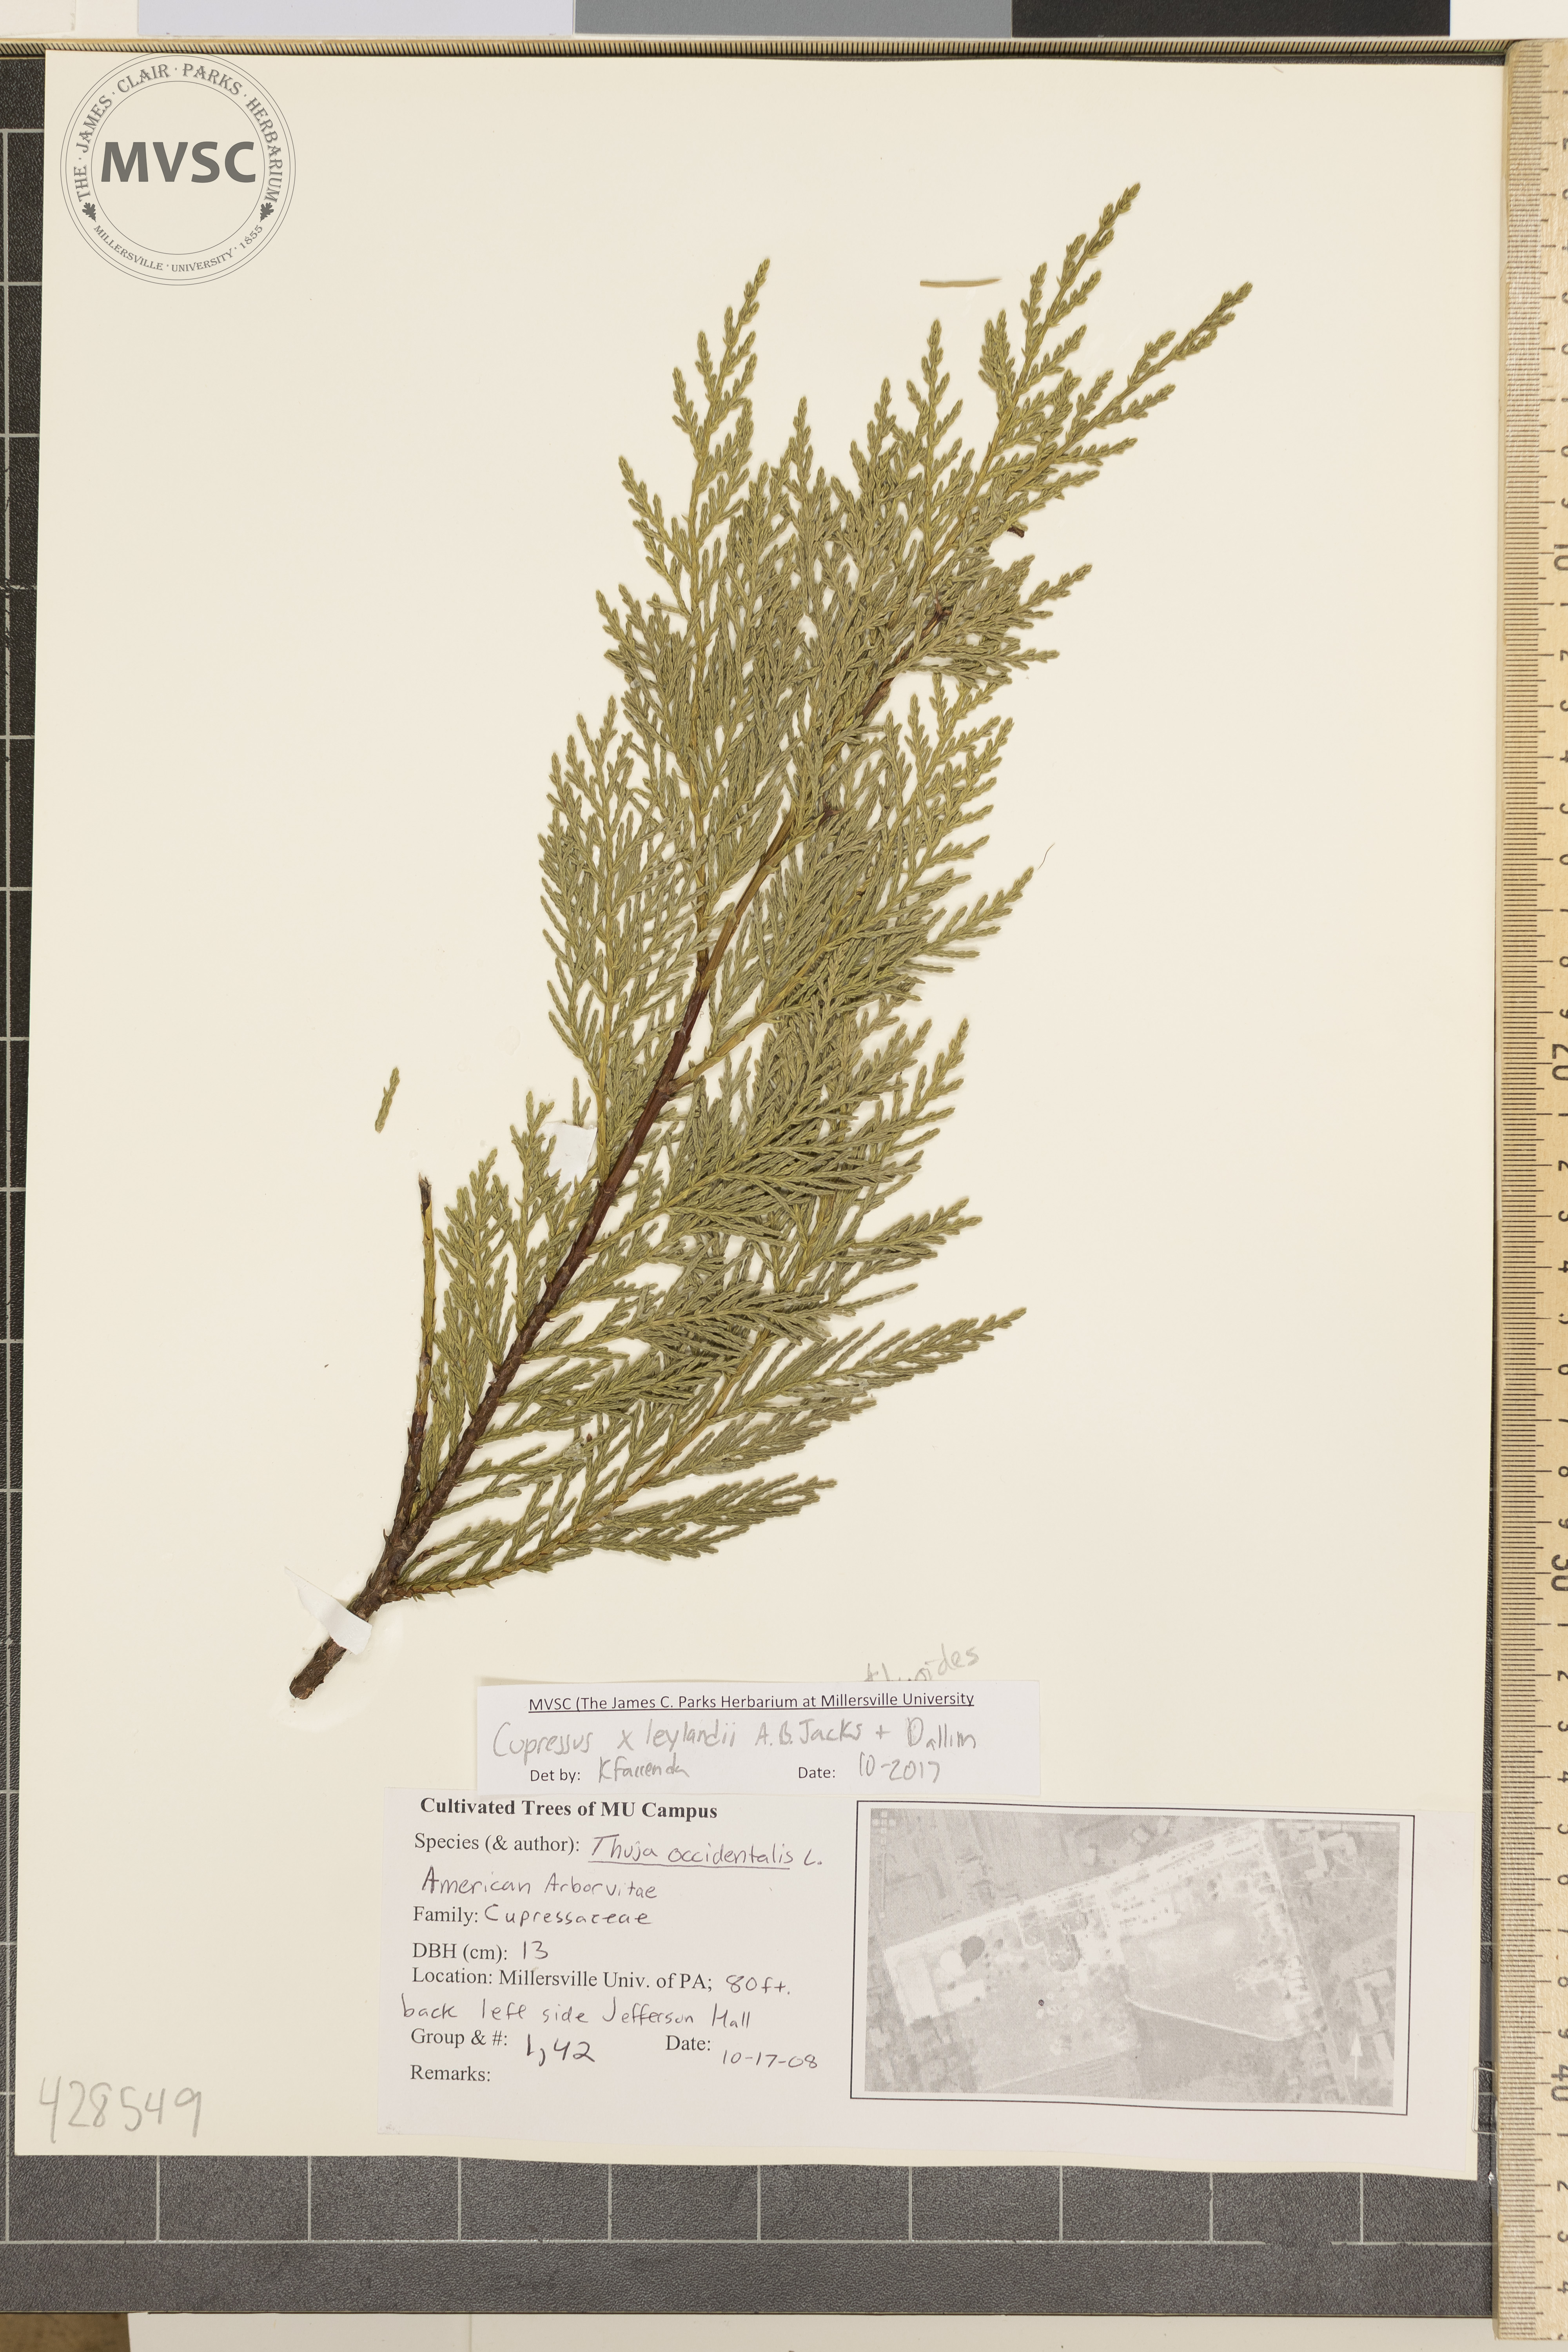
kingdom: Plantae
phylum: Tracheophyta
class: Pinopsida
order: Pinales
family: Cupressaceae
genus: Hesperotropsis
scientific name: Hesperotropsis leylandii
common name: Leyland cypress
